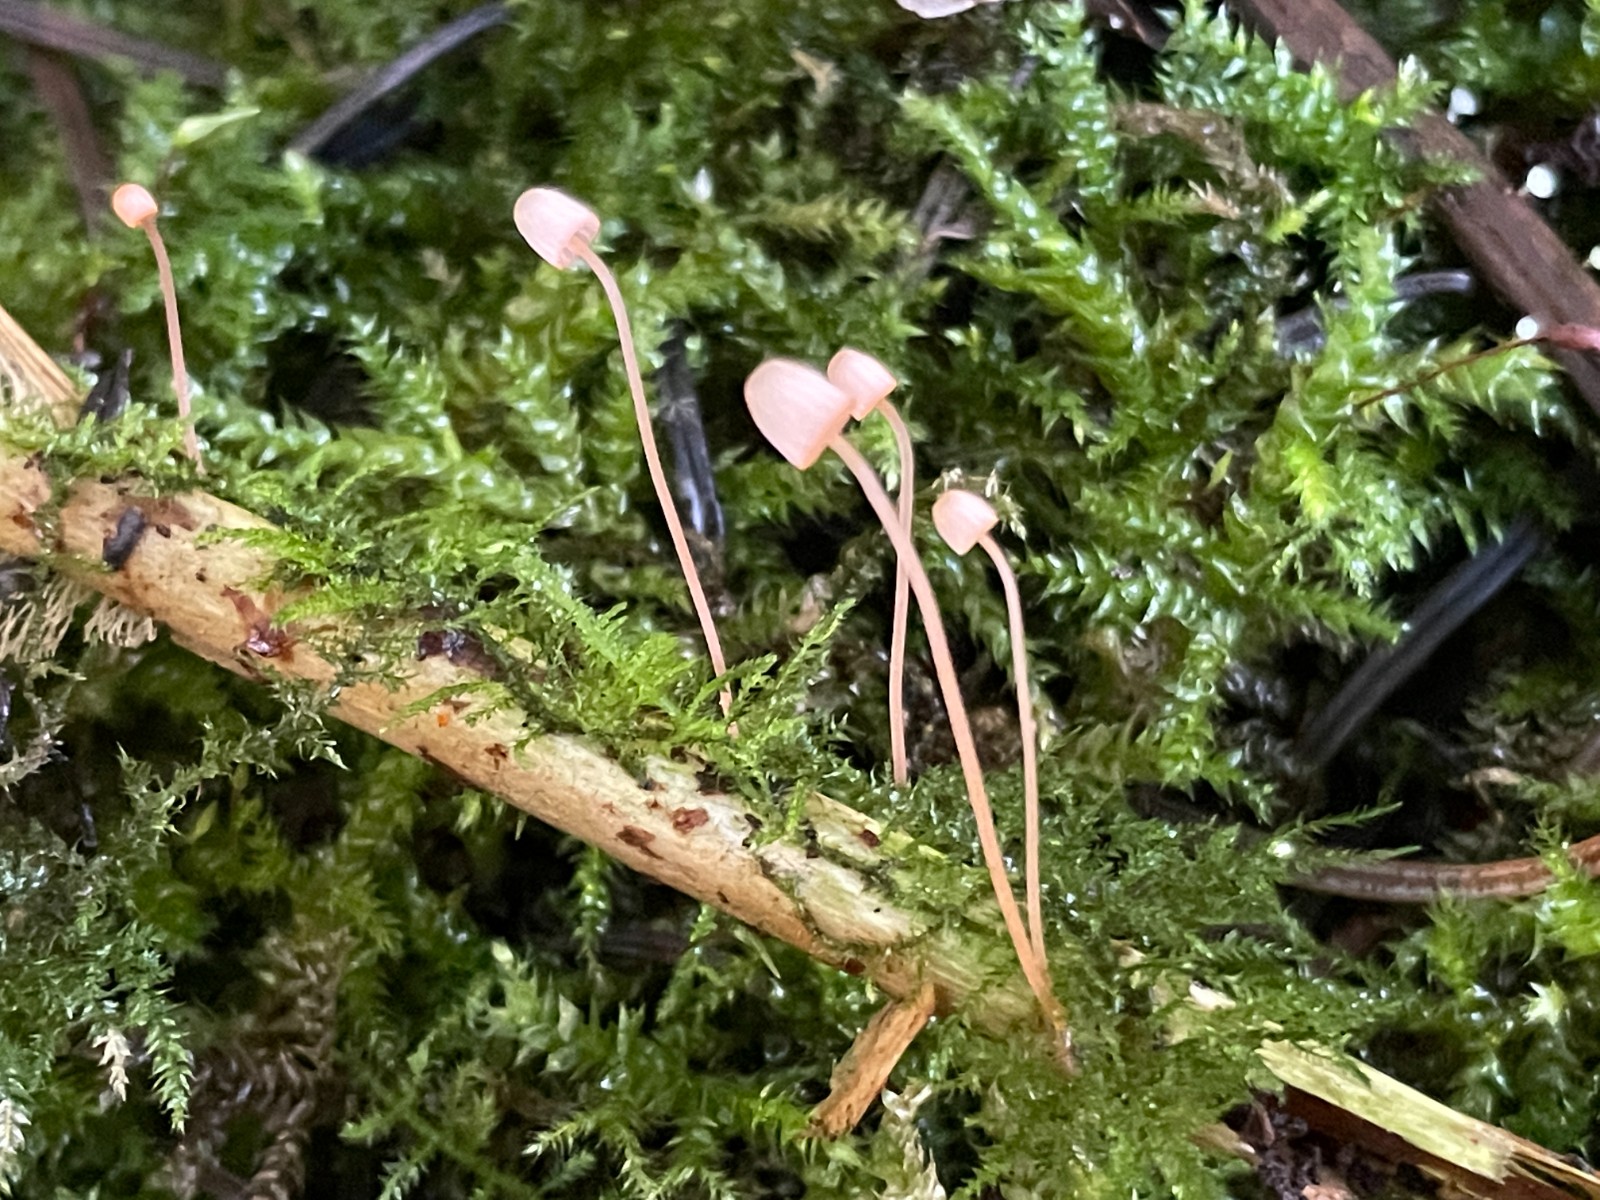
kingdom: Fungi
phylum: Basidiomycota
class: Agaricomycetes
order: Agaricales
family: Mycenaceae
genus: Mycena
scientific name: Mycena pterigena
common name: bregne-huesvamp
